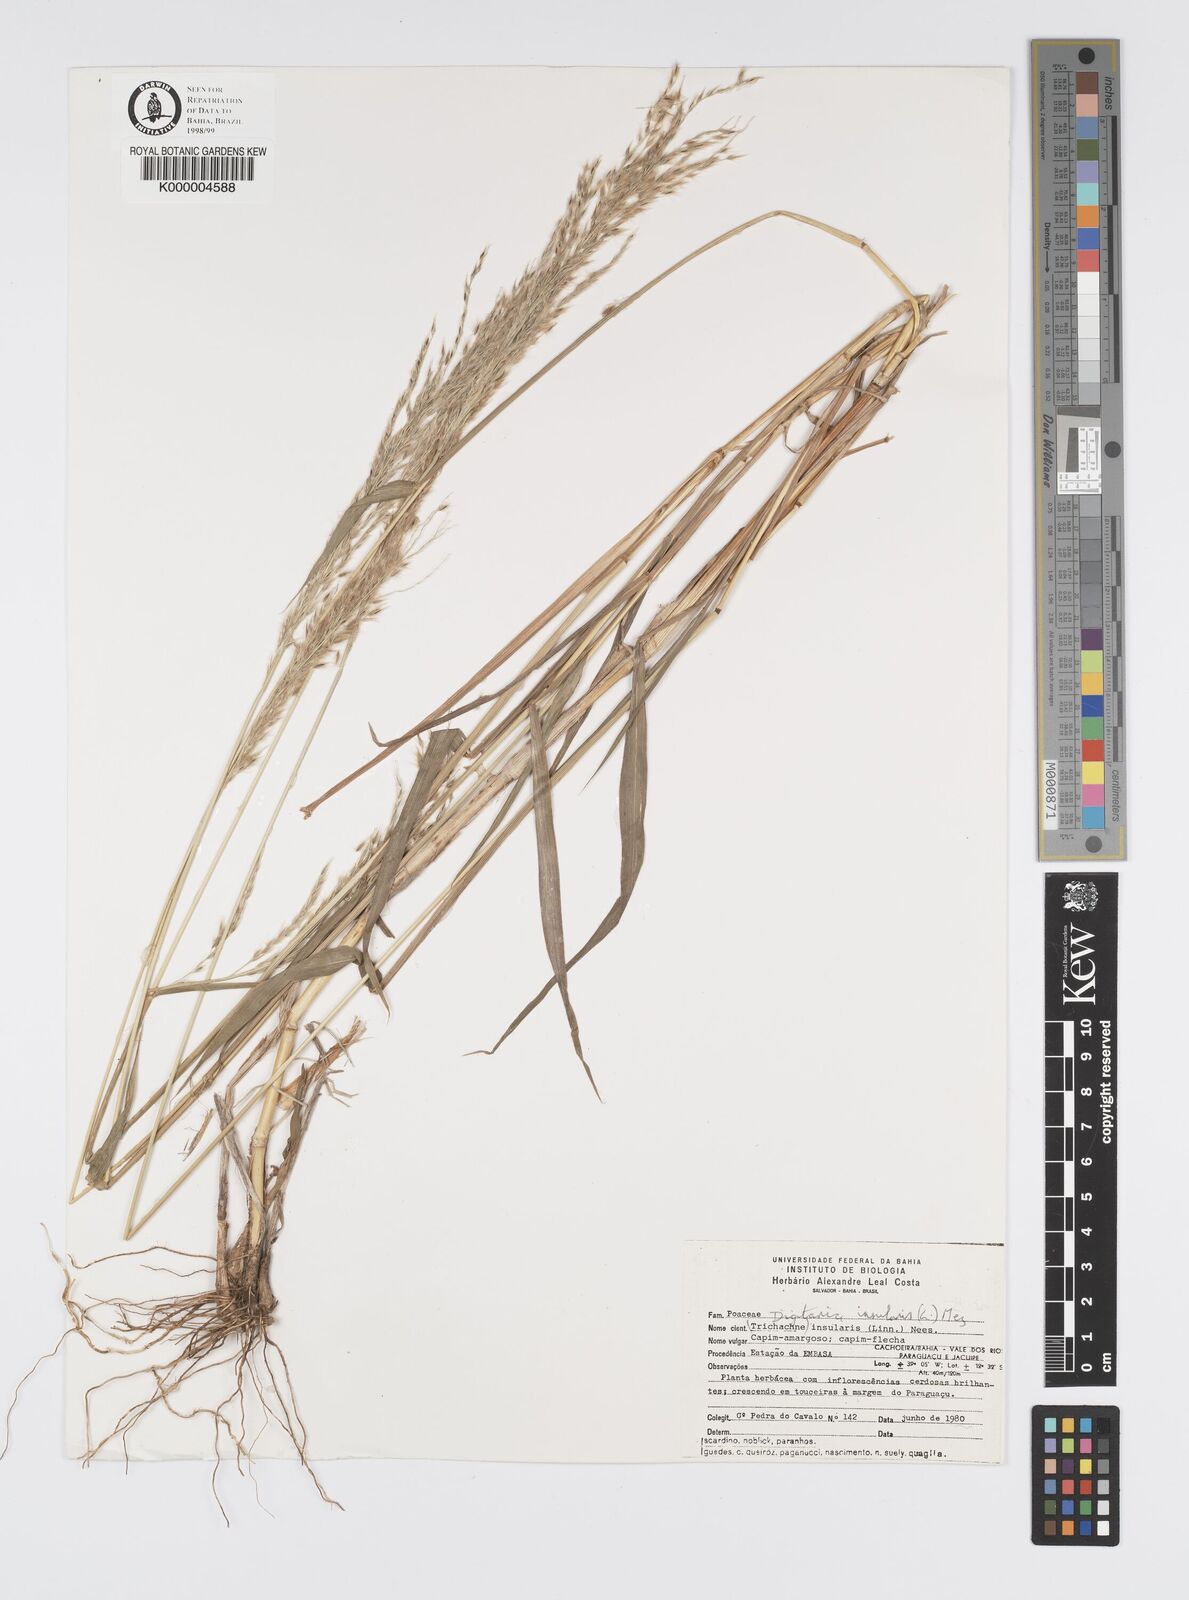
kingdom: Plantae
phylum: Tracheophyta
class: Liliopsida
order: Poales
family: Poaceae
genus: Digitaria
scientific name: Digitaria
